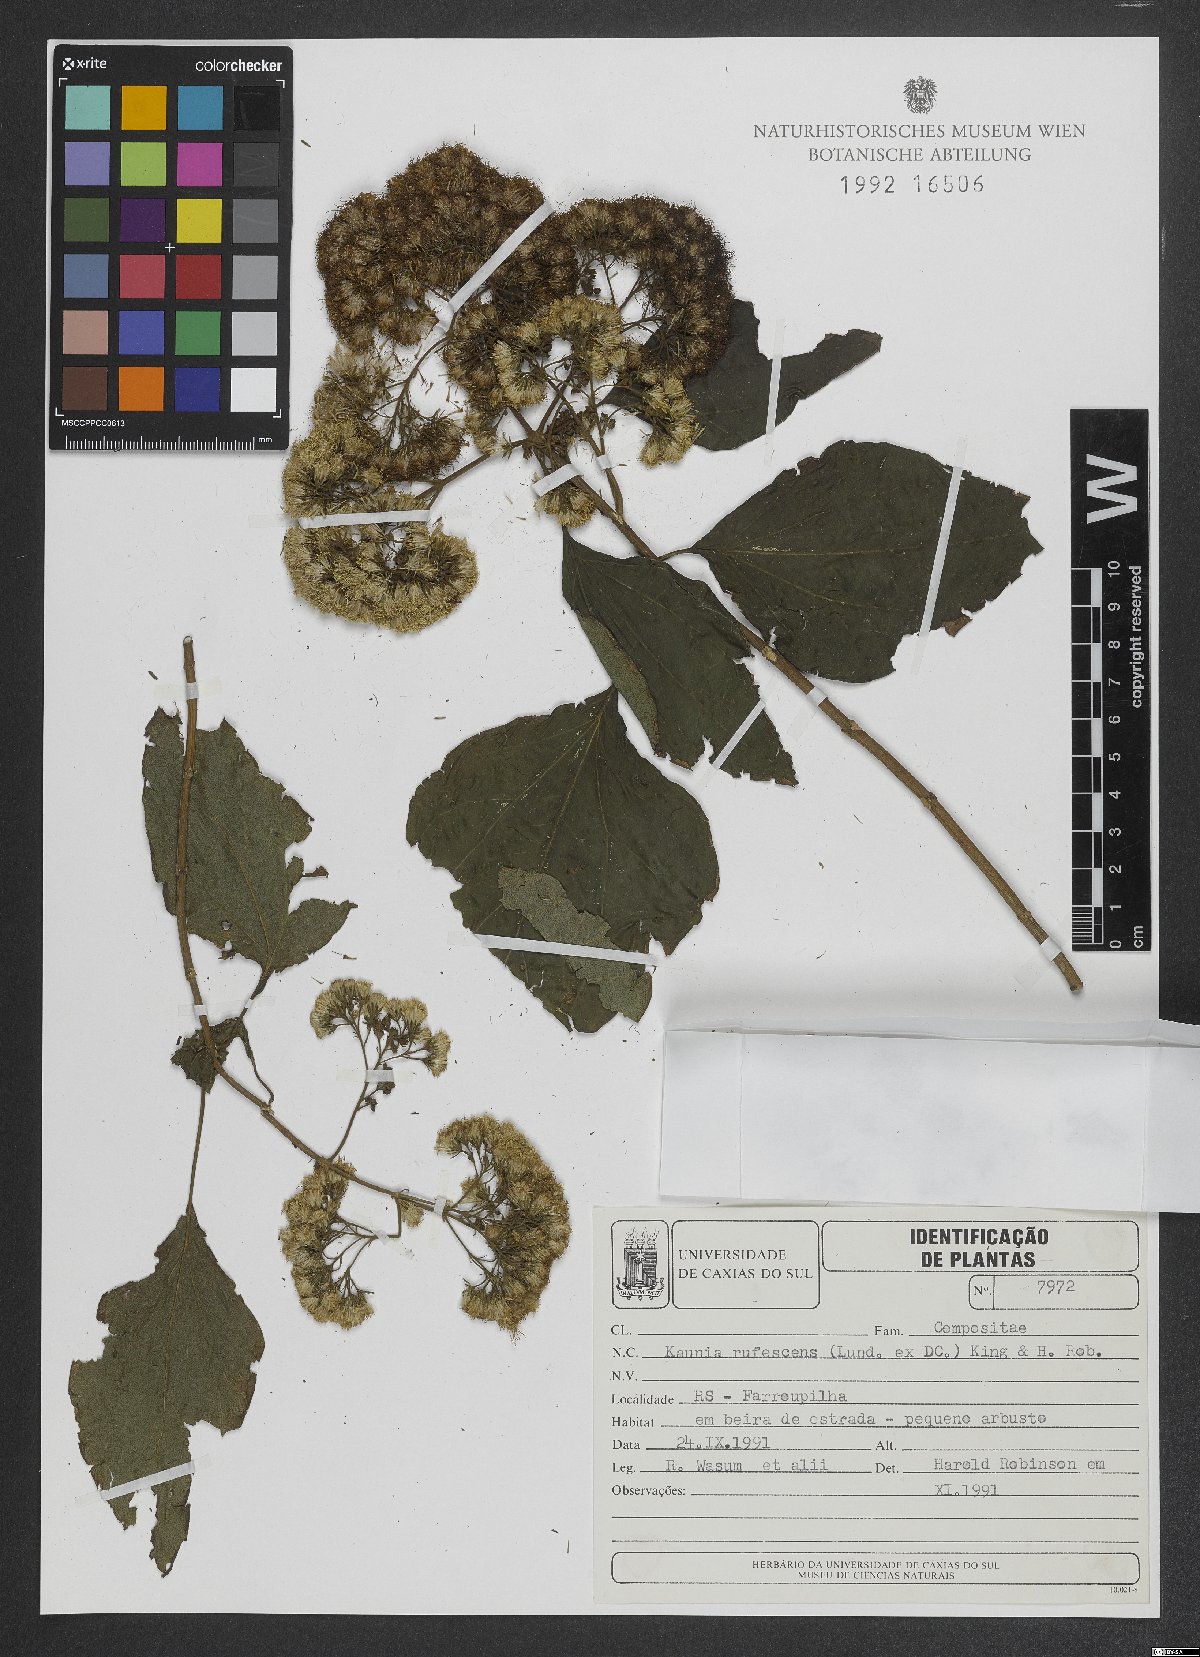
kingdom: Plantae
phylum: Tracheophyta
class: Magnoliopsida
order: Asterales
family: Asteraceae
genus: Kaunia
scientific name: Kaunia rufescens
